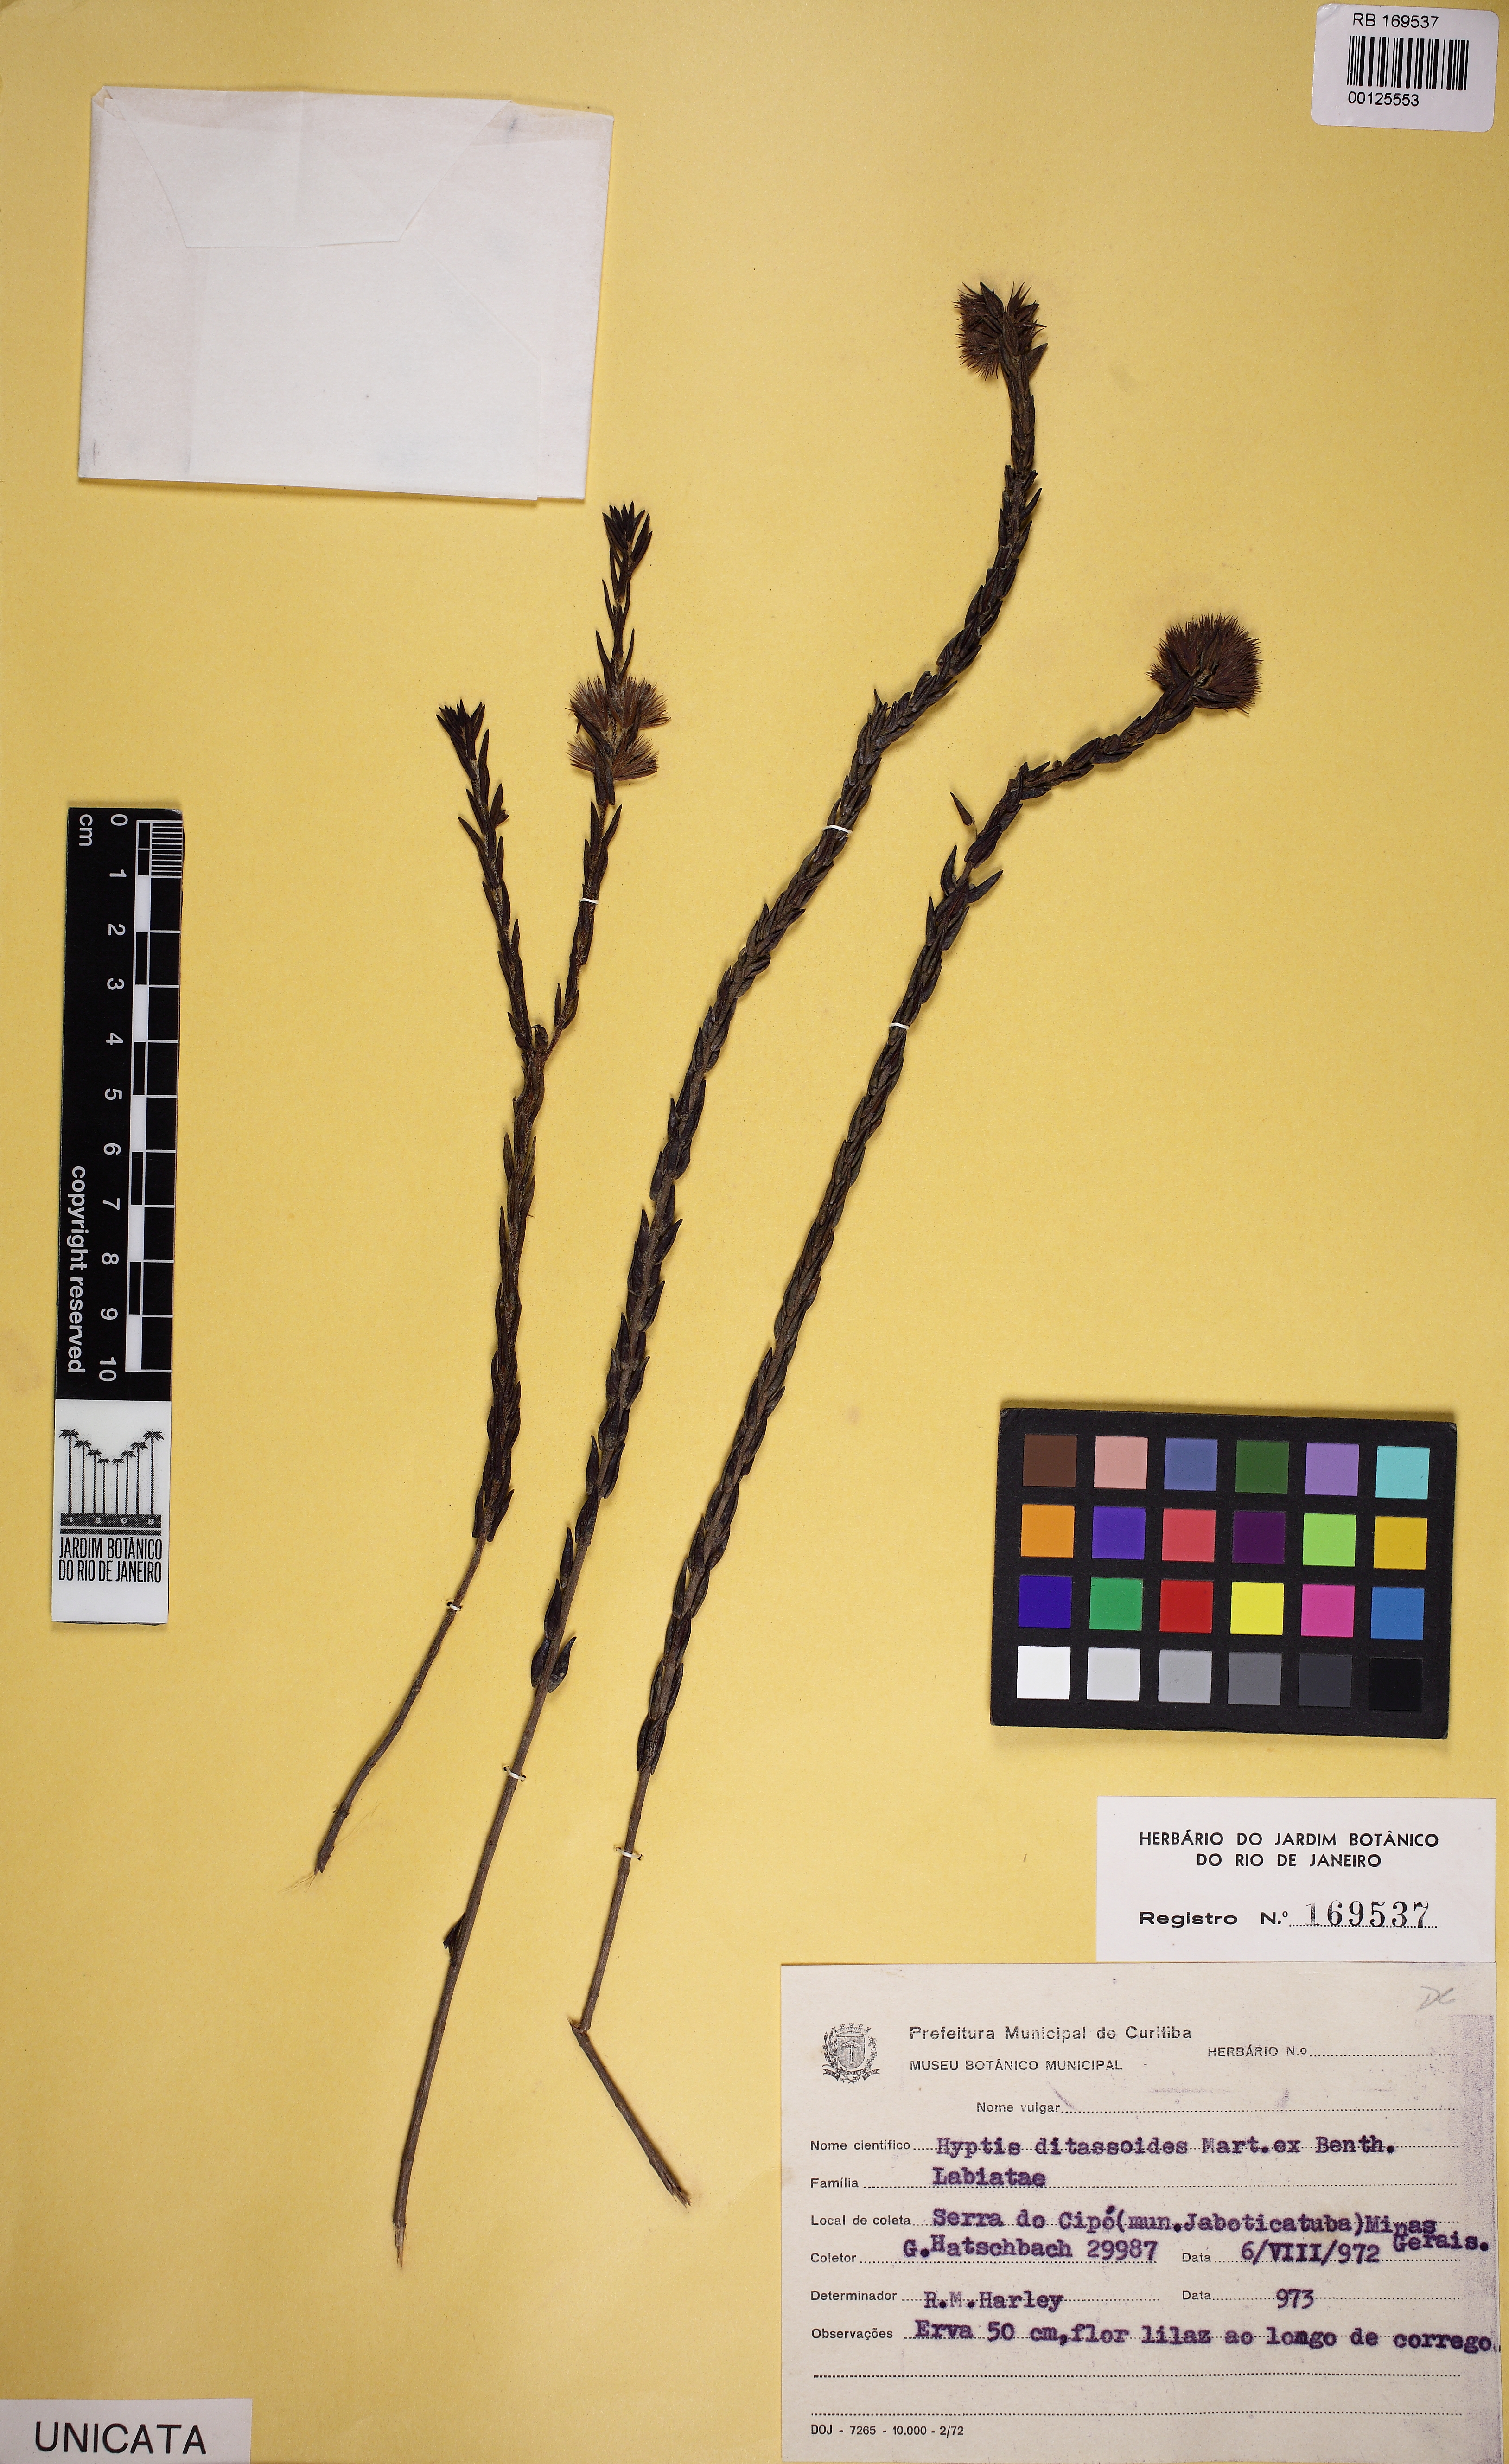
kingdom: Plantae
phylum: Tracheophyta
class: Magnoliopsida
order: Lamiales
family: Lamiaceae
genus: Hyptis
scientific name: Hyptis ditassoides
